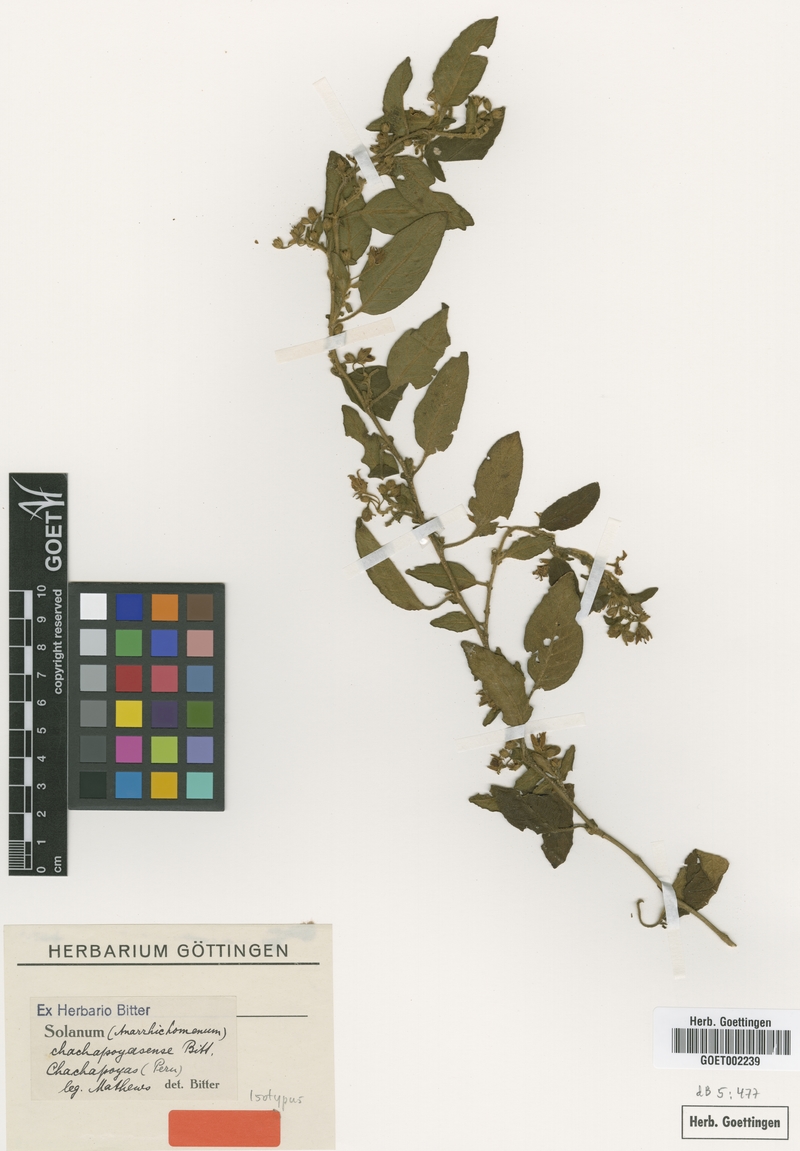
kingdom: Plantae
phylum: Tracheophyta
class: Magnoliopsida
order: Solanales
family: Solanaceae
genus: Solanum
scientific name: Solanum chachapoyasense
